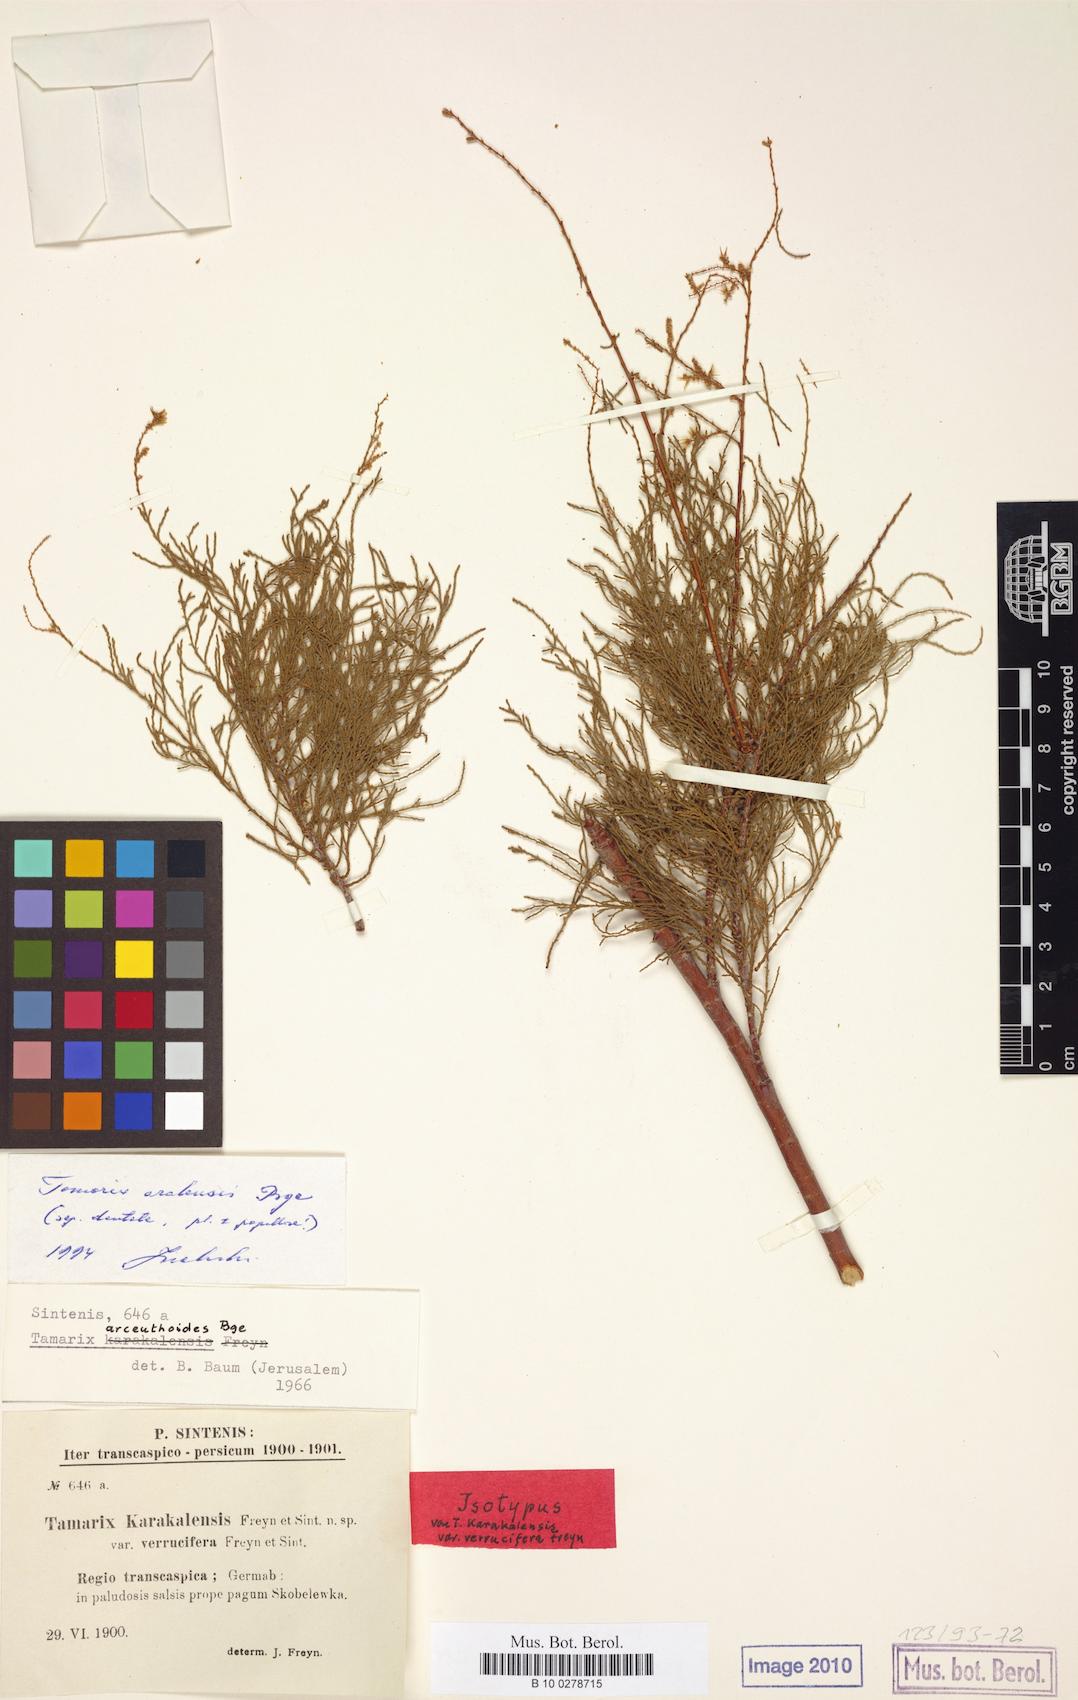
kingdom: Plantae
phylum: Tracheophyta
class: Magnoliopsida
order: Caryophyllales
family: Tamaricaceae
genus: Tamarix
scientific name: Tamarix aralensis
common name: Russian tamarisk
